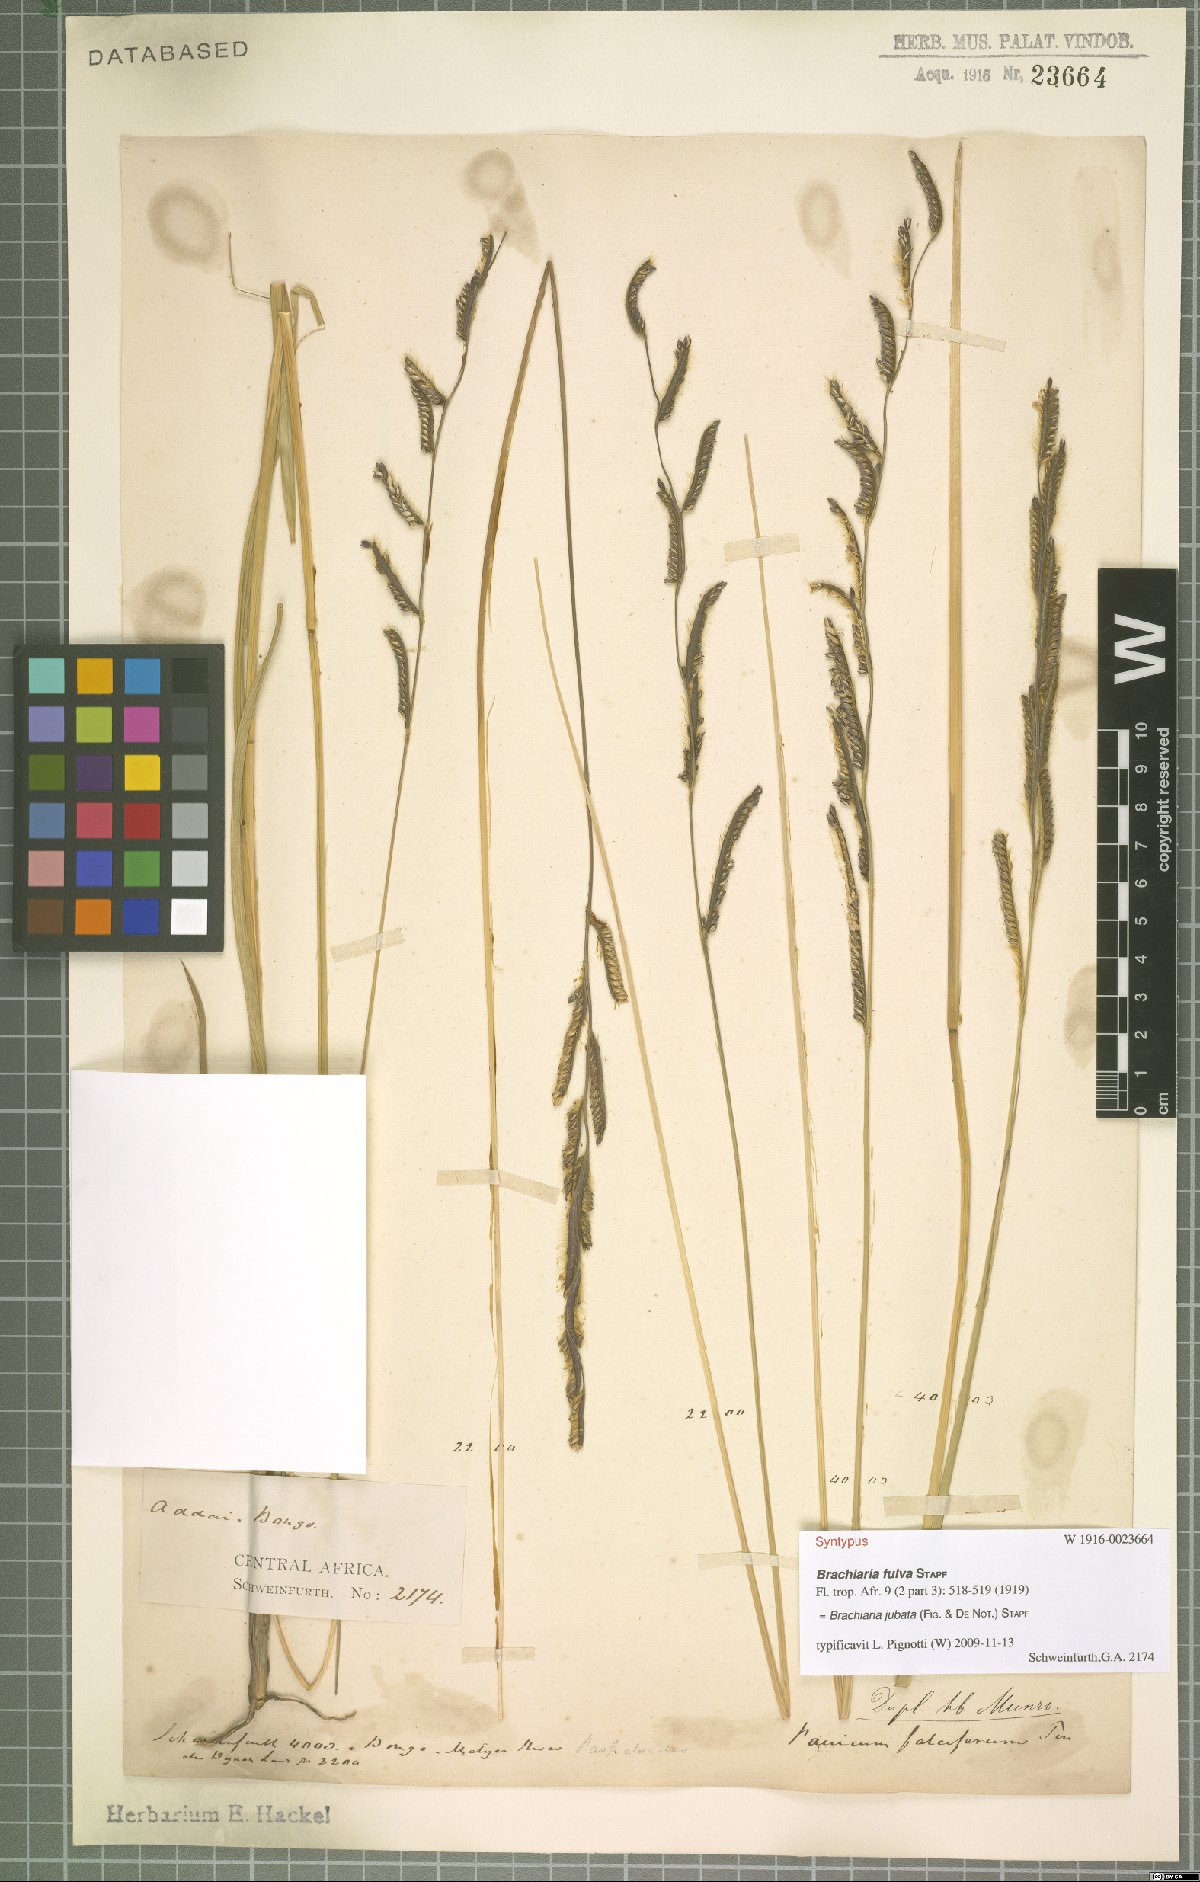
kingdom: Plantae
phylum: Tracheophyta
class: Liliopsida
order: Poales
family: Poaceae
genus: Urochloa
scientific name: Urochloa jubata
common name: Buffalograss
